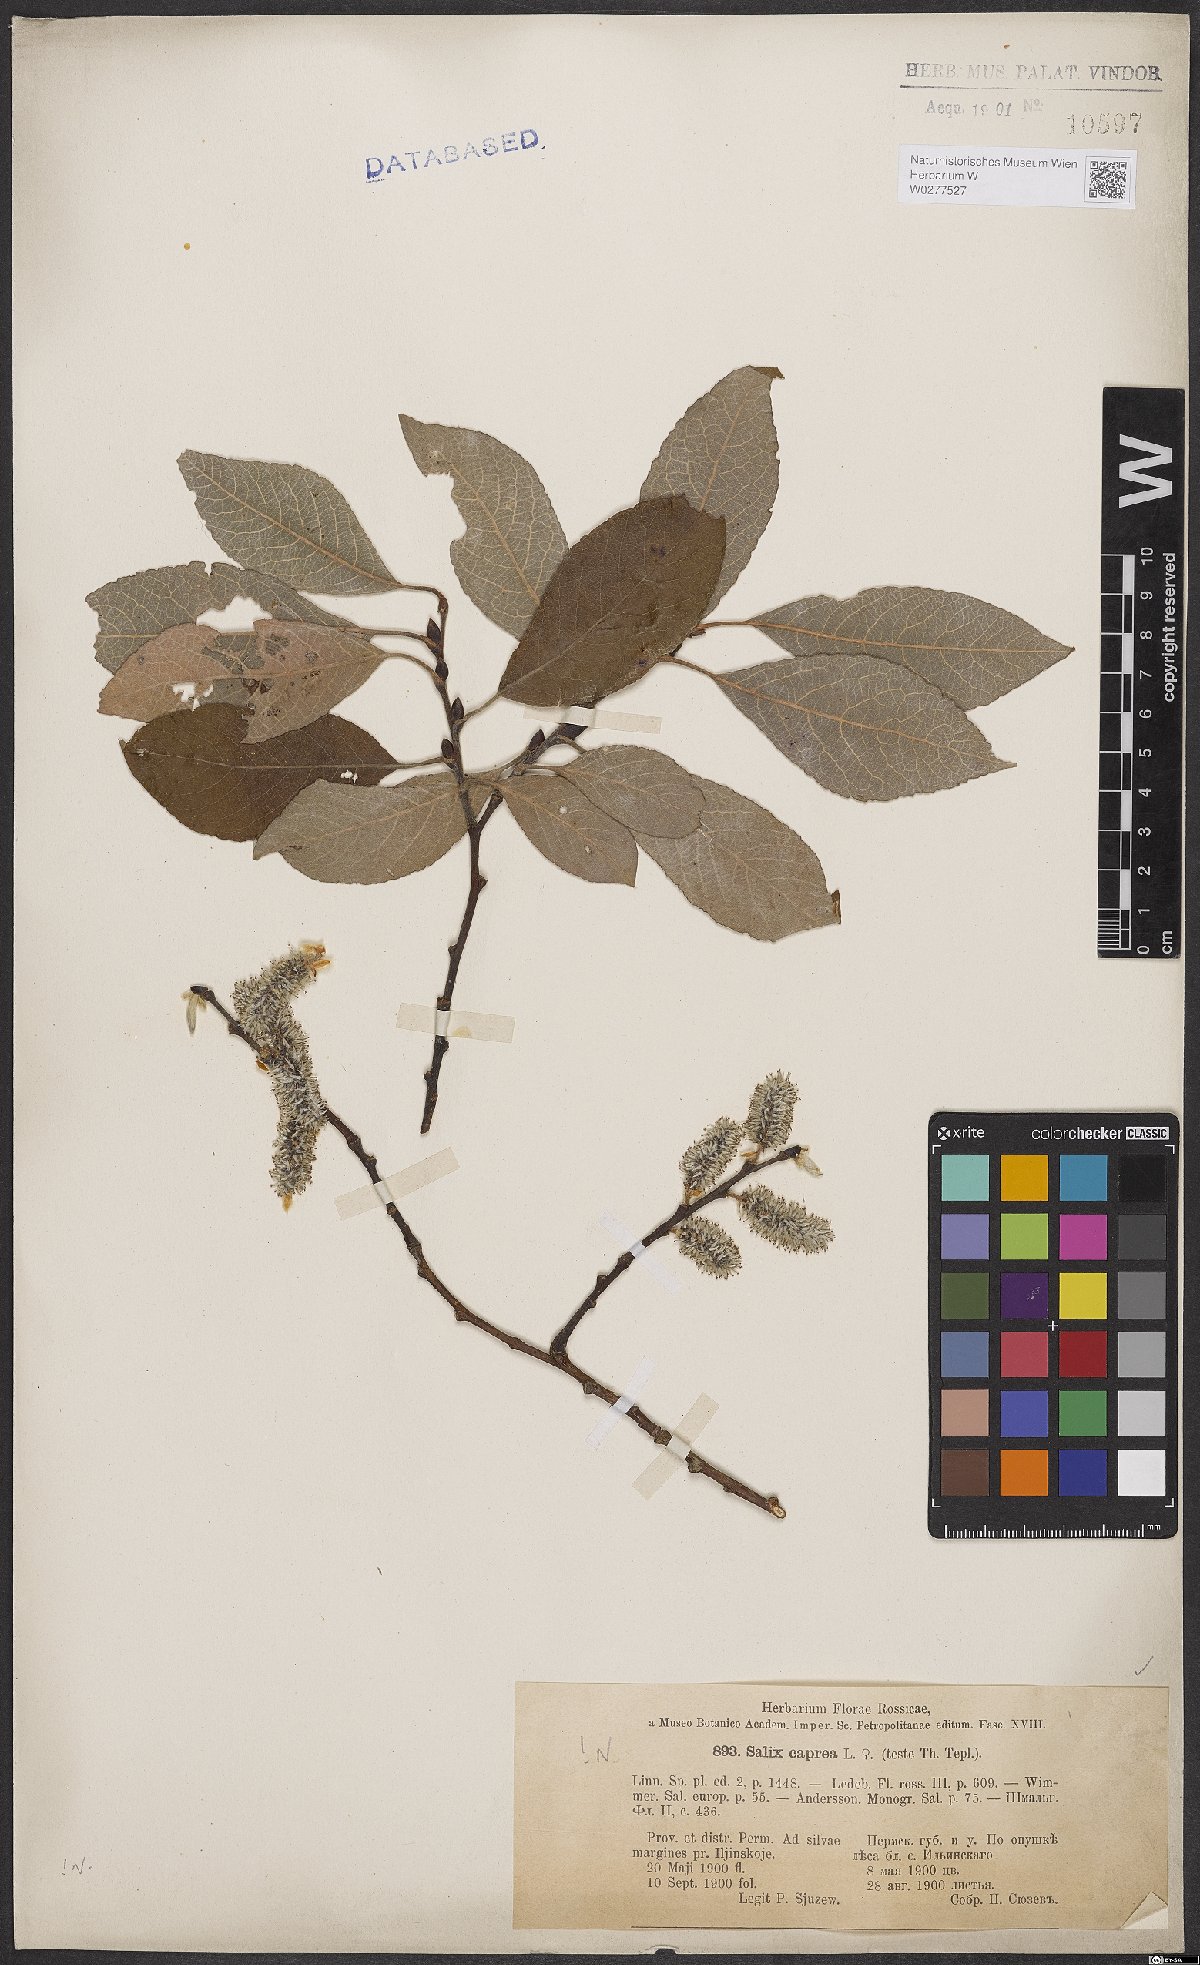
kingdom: Plantae
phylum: Tracheophyta
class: Magnoliopsida
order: Malpighiales
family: Salicaceae
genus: Salix
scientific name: Salix caprea
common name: Goat willow
